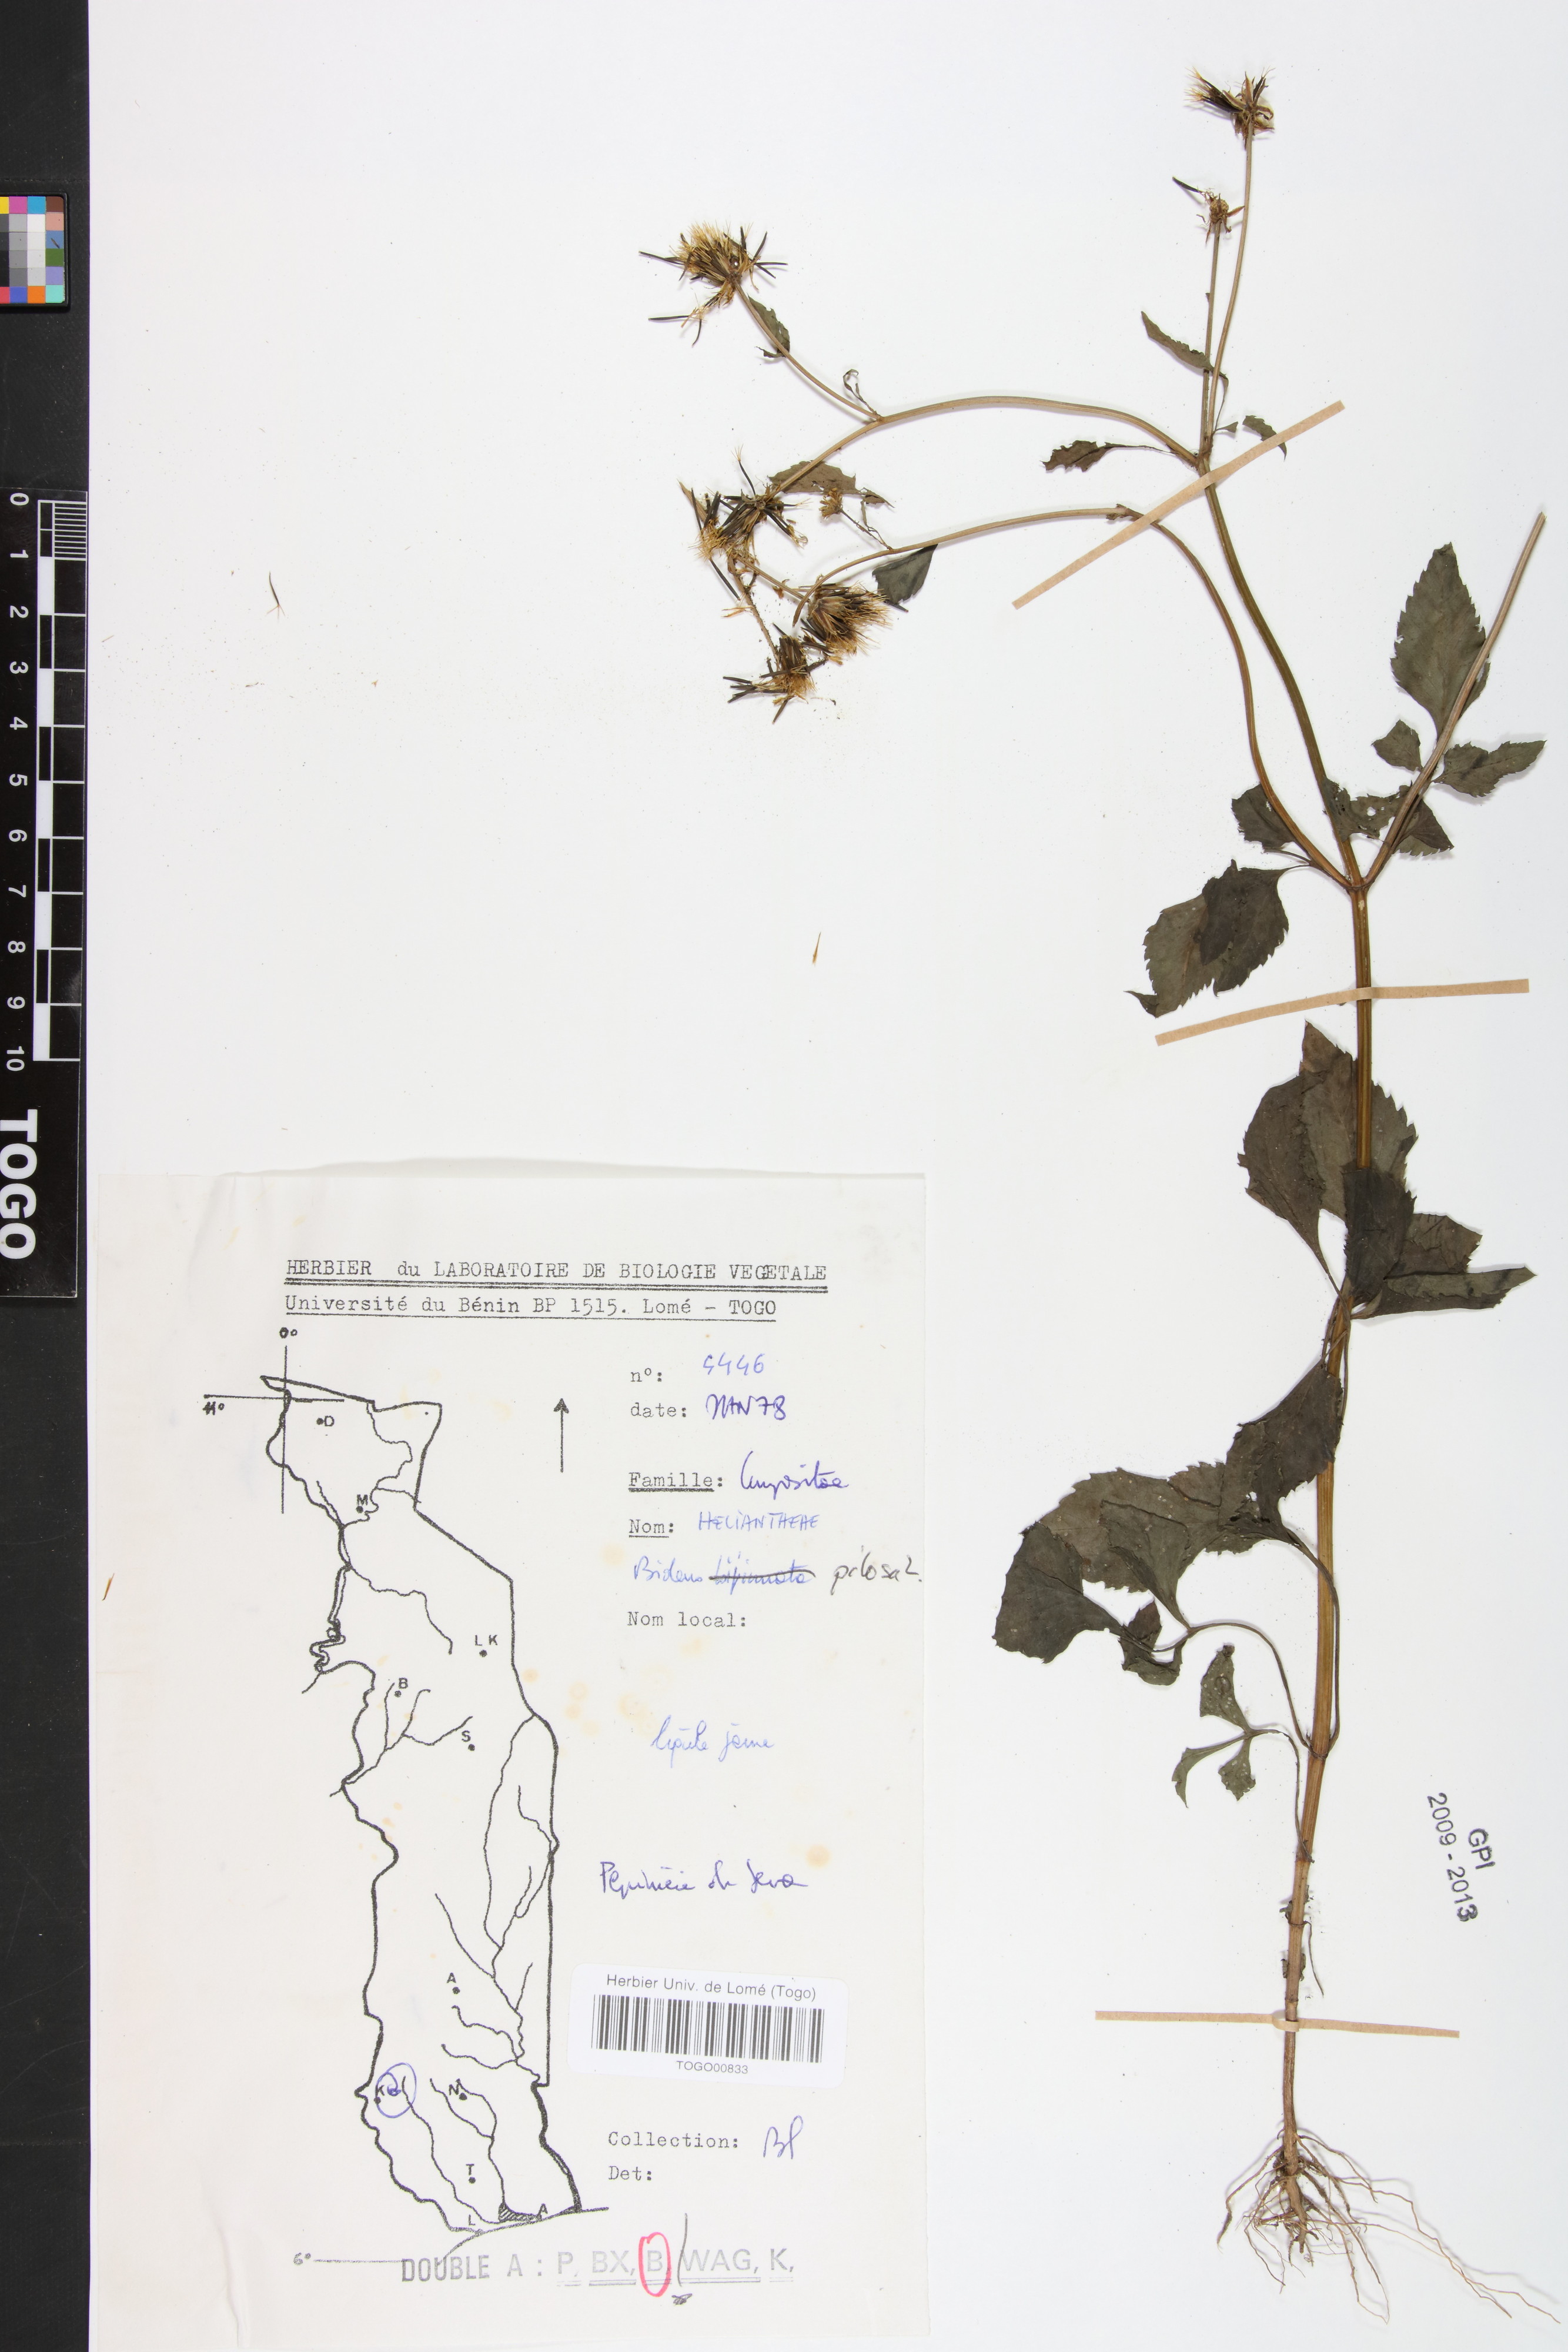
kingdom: Plantae
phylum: Tracheophyta
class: Magnoliopsida
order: Asterales
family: Asteraceae
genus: Bidens
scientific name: Bidens pilosa
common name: Black-jack
